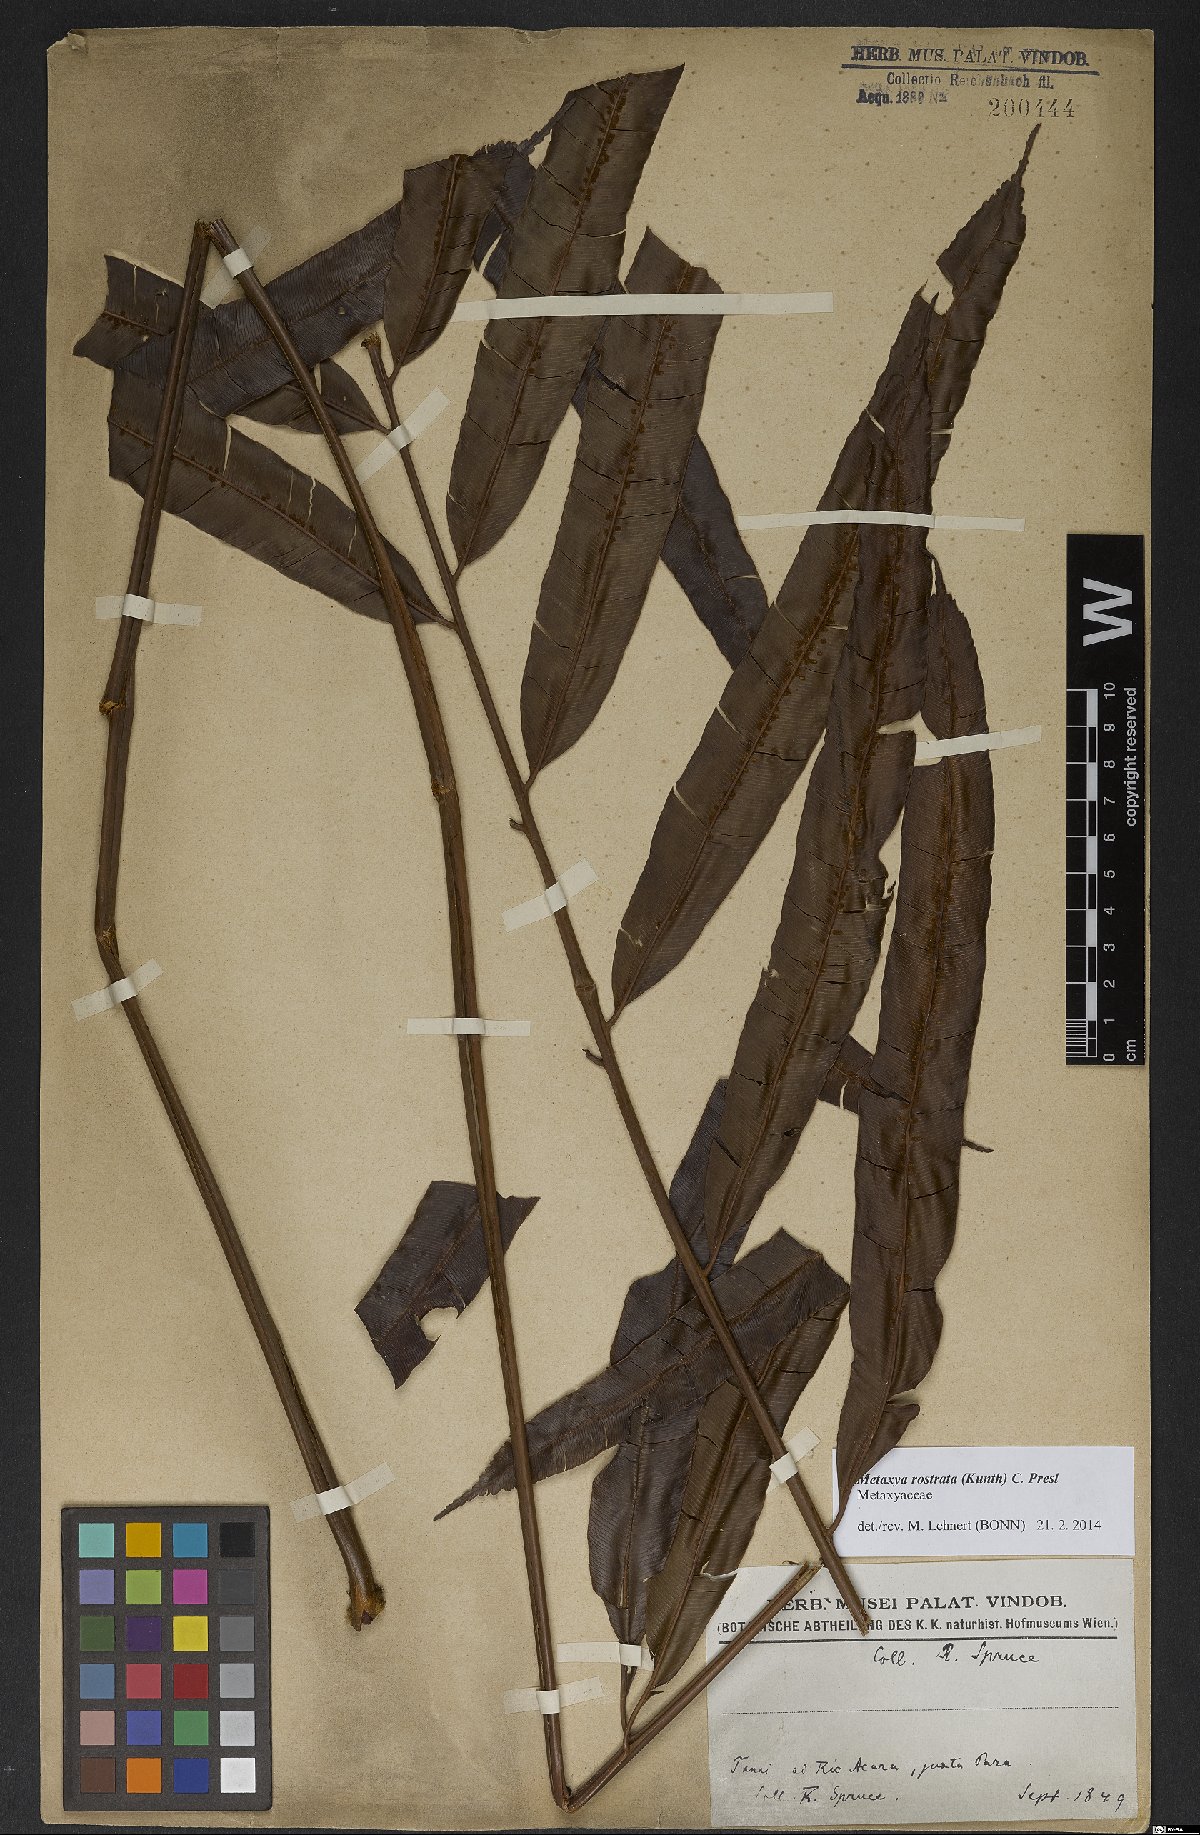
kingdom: Plantae
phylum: Tracheophyta
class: Polypodiopsida
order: Cyatheales
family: Metaxyaceae
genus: Metaxya
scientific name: Metaxya rostrata
